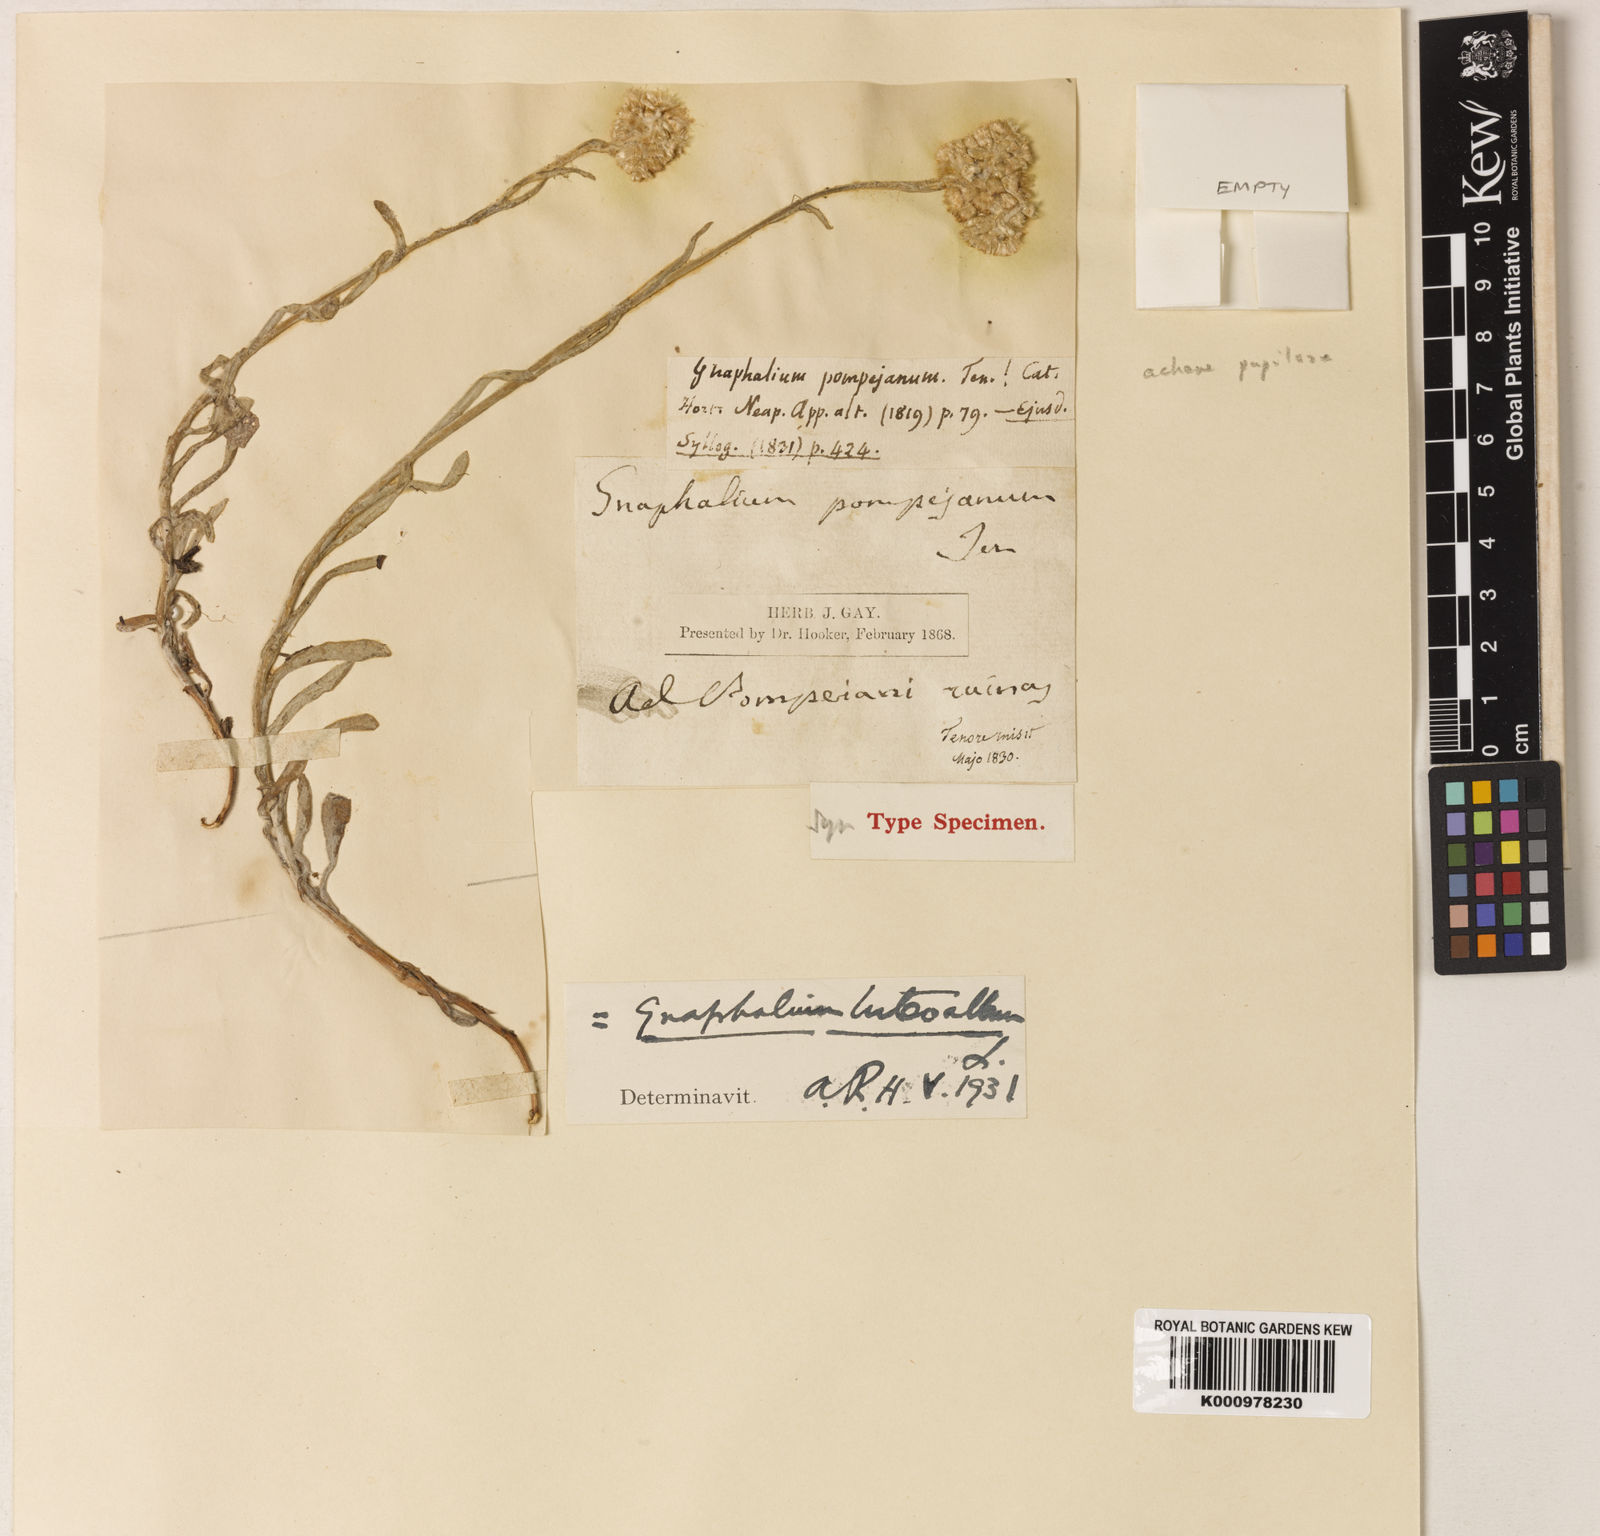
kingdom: Plantae
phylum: Tracheophyta
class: Magnoliopsida
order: Asterales
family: Asteraceae
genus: Helichrysum
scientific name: Helichrysum luteoalbum
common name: Daisy
